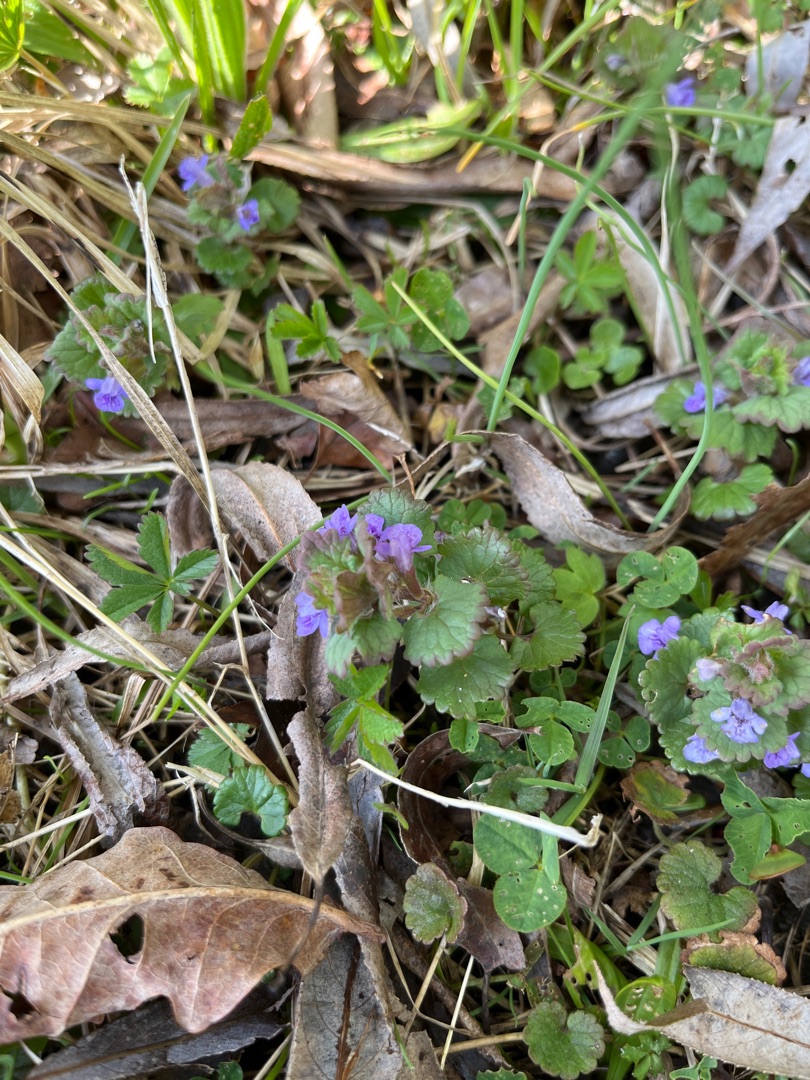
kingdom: Plantae
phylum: Tracheophyta
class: Magnoliopsida
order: Lamiales
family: Lamiaceae
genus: Glechoma
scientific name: Glechoma hederacea
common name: Korsknap
